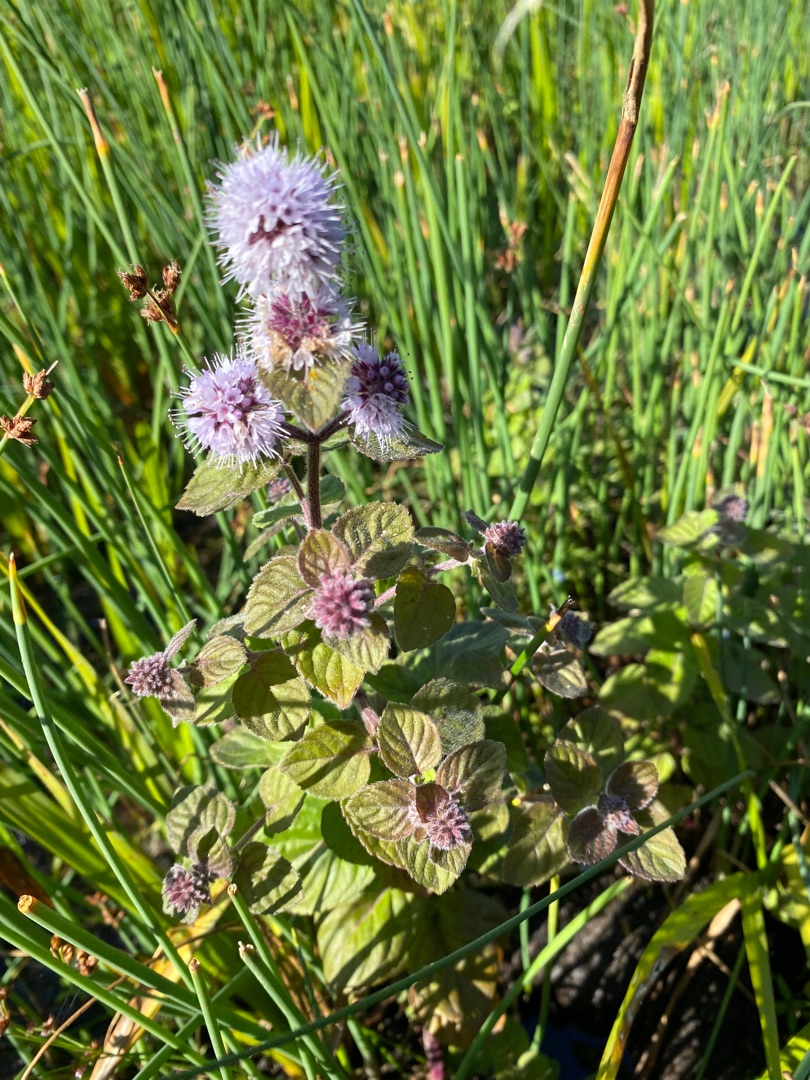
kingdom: Plantae
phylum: Tracheophyta
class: Magnoliopsida
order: Lamiales
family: Lamiaceae
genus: Mentha
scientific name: Mentha aquatica
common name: Vand-mynte
